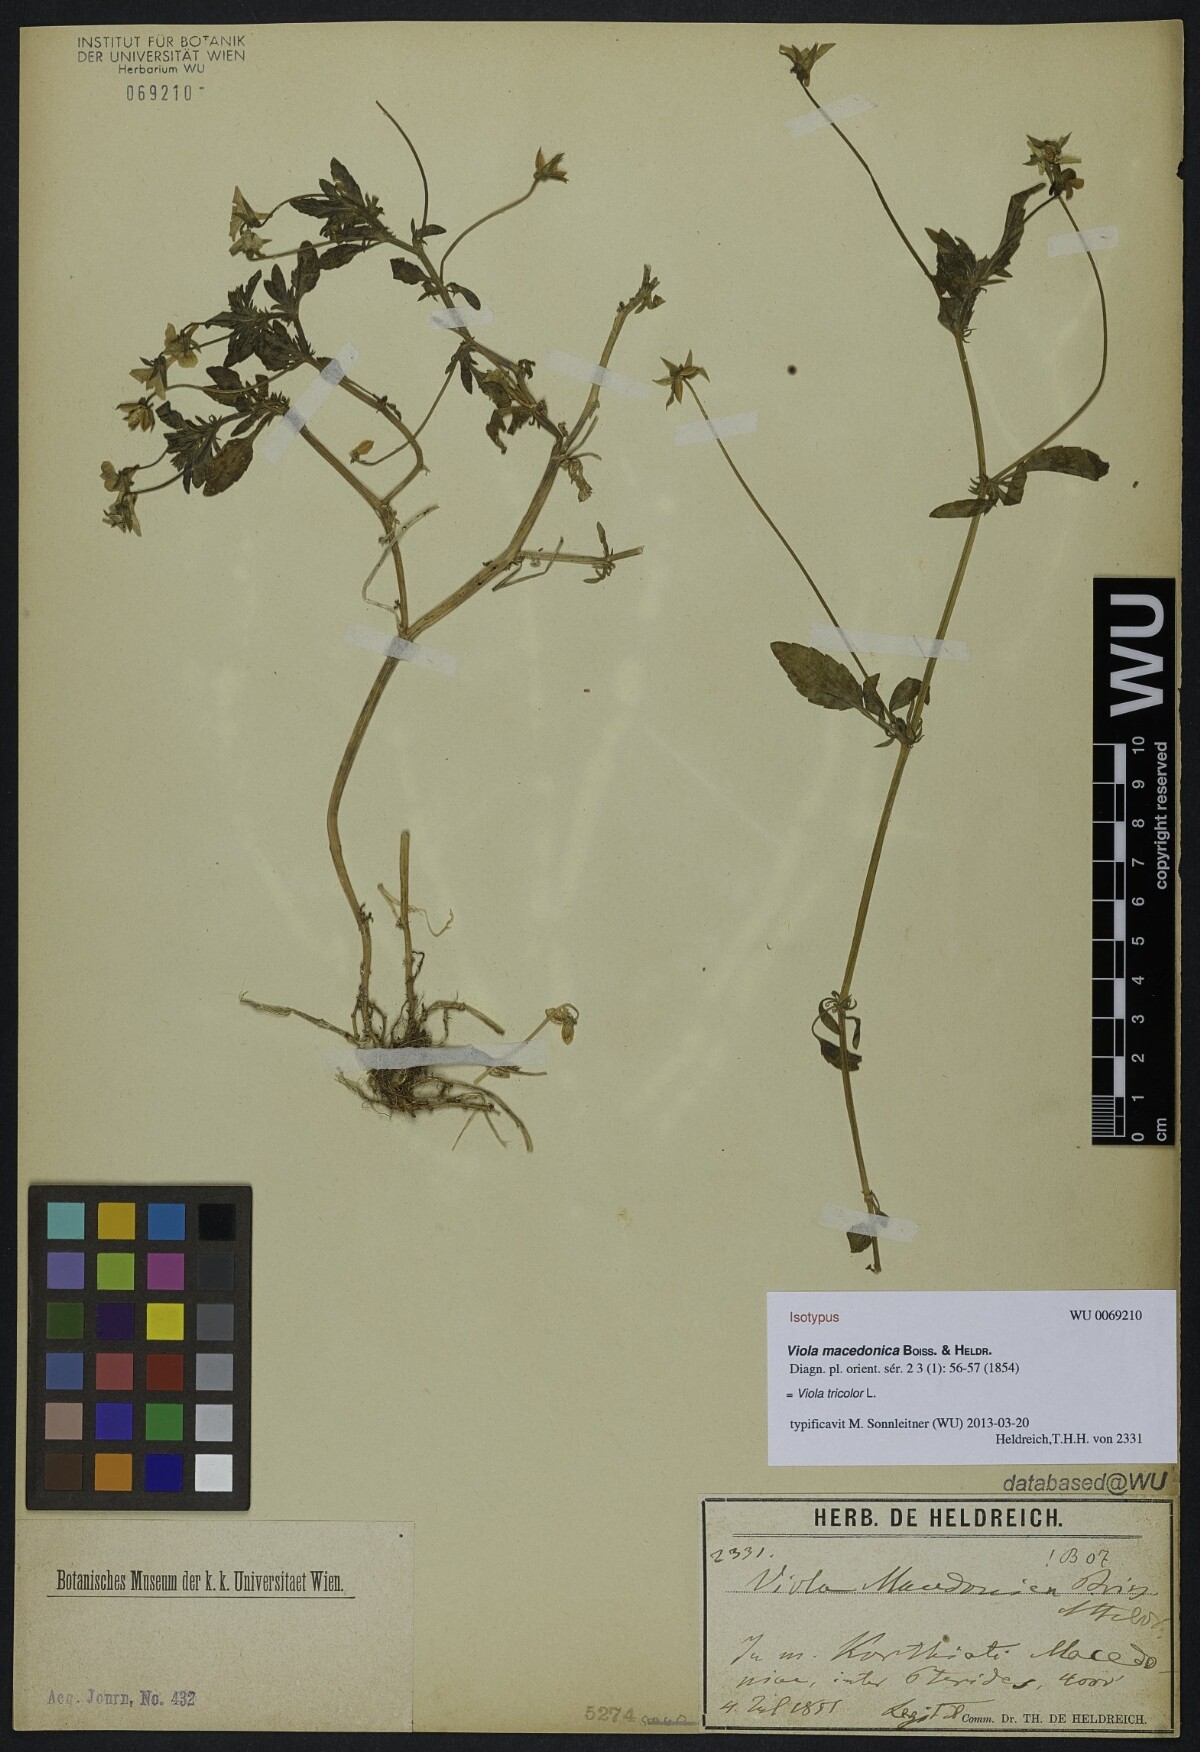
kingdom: Plantae
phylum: Tracheophyta
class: Magnoliopsida
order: Malpighiales
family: Violaceae
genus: Viola
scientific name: Viola tricolor
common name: Pansy
